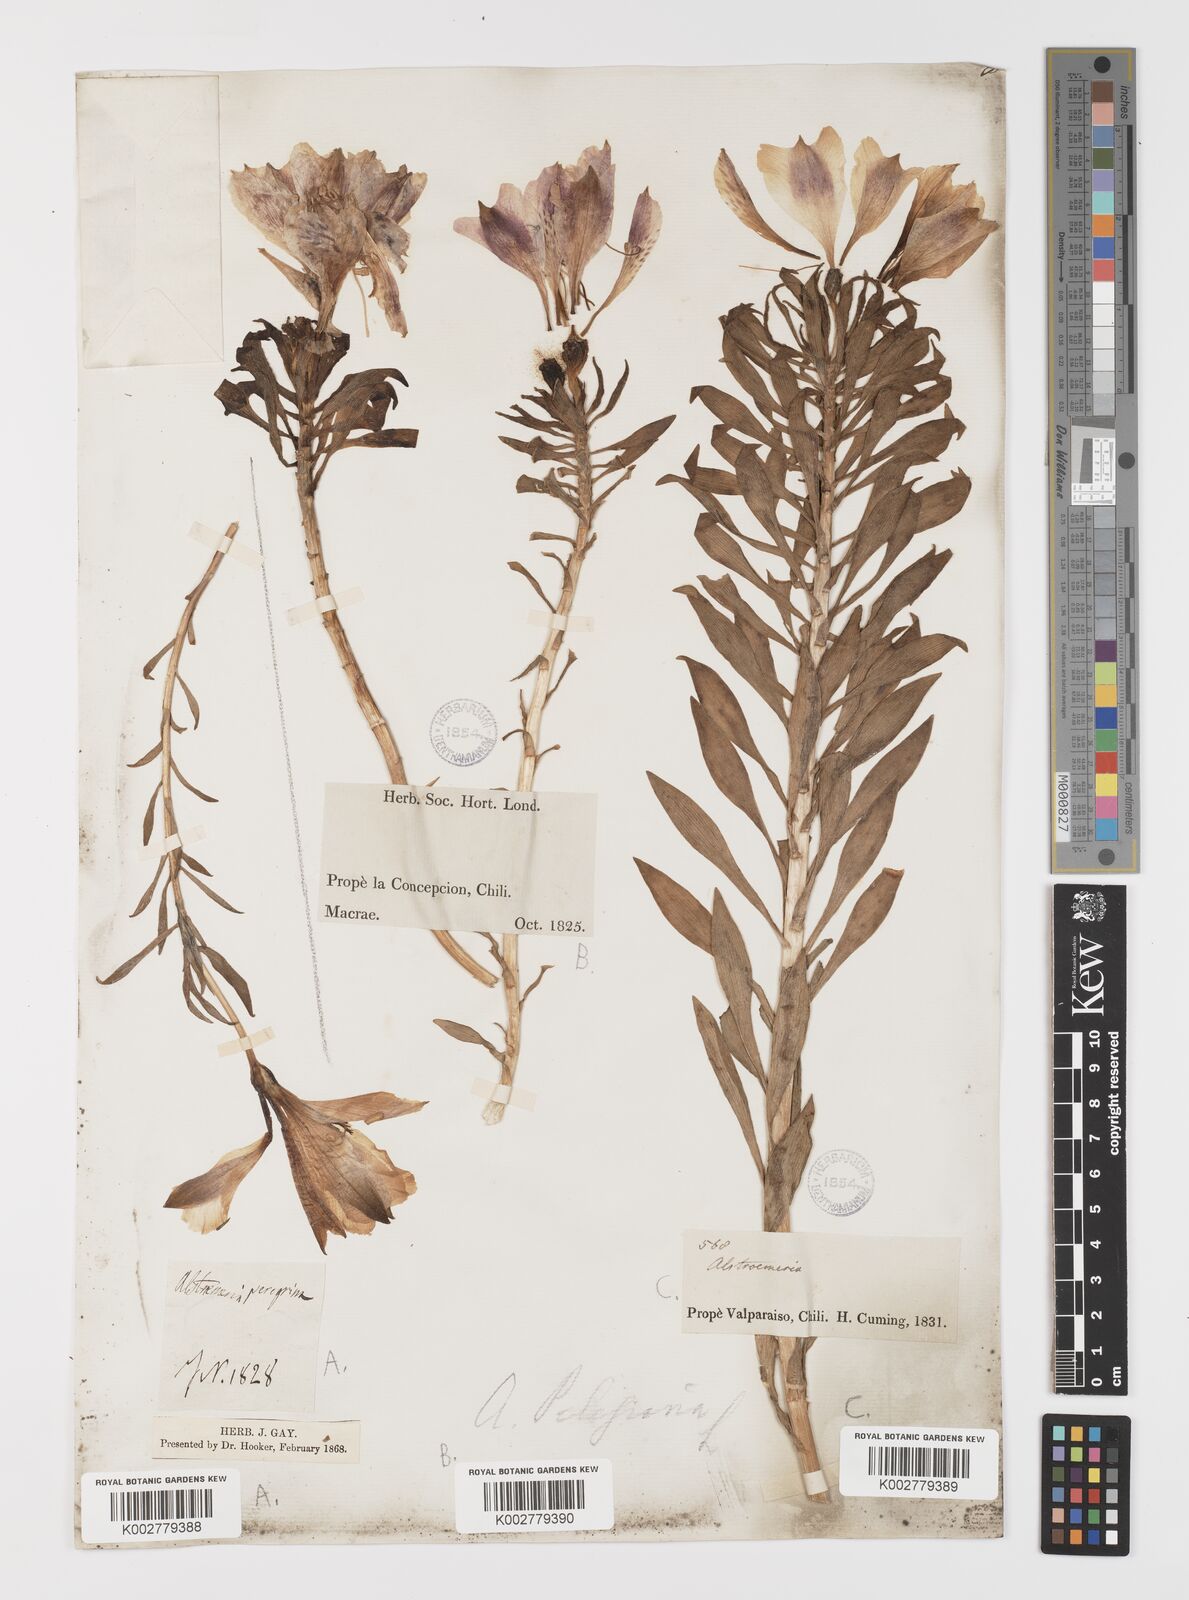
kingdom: Plantae
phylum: Tracheophyta
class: Liliopsida
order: Liliales
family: Alstroemeriaceae
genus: Alstroemeria
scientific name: Alstroemeria pelegrina
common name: Peruvian-lily
